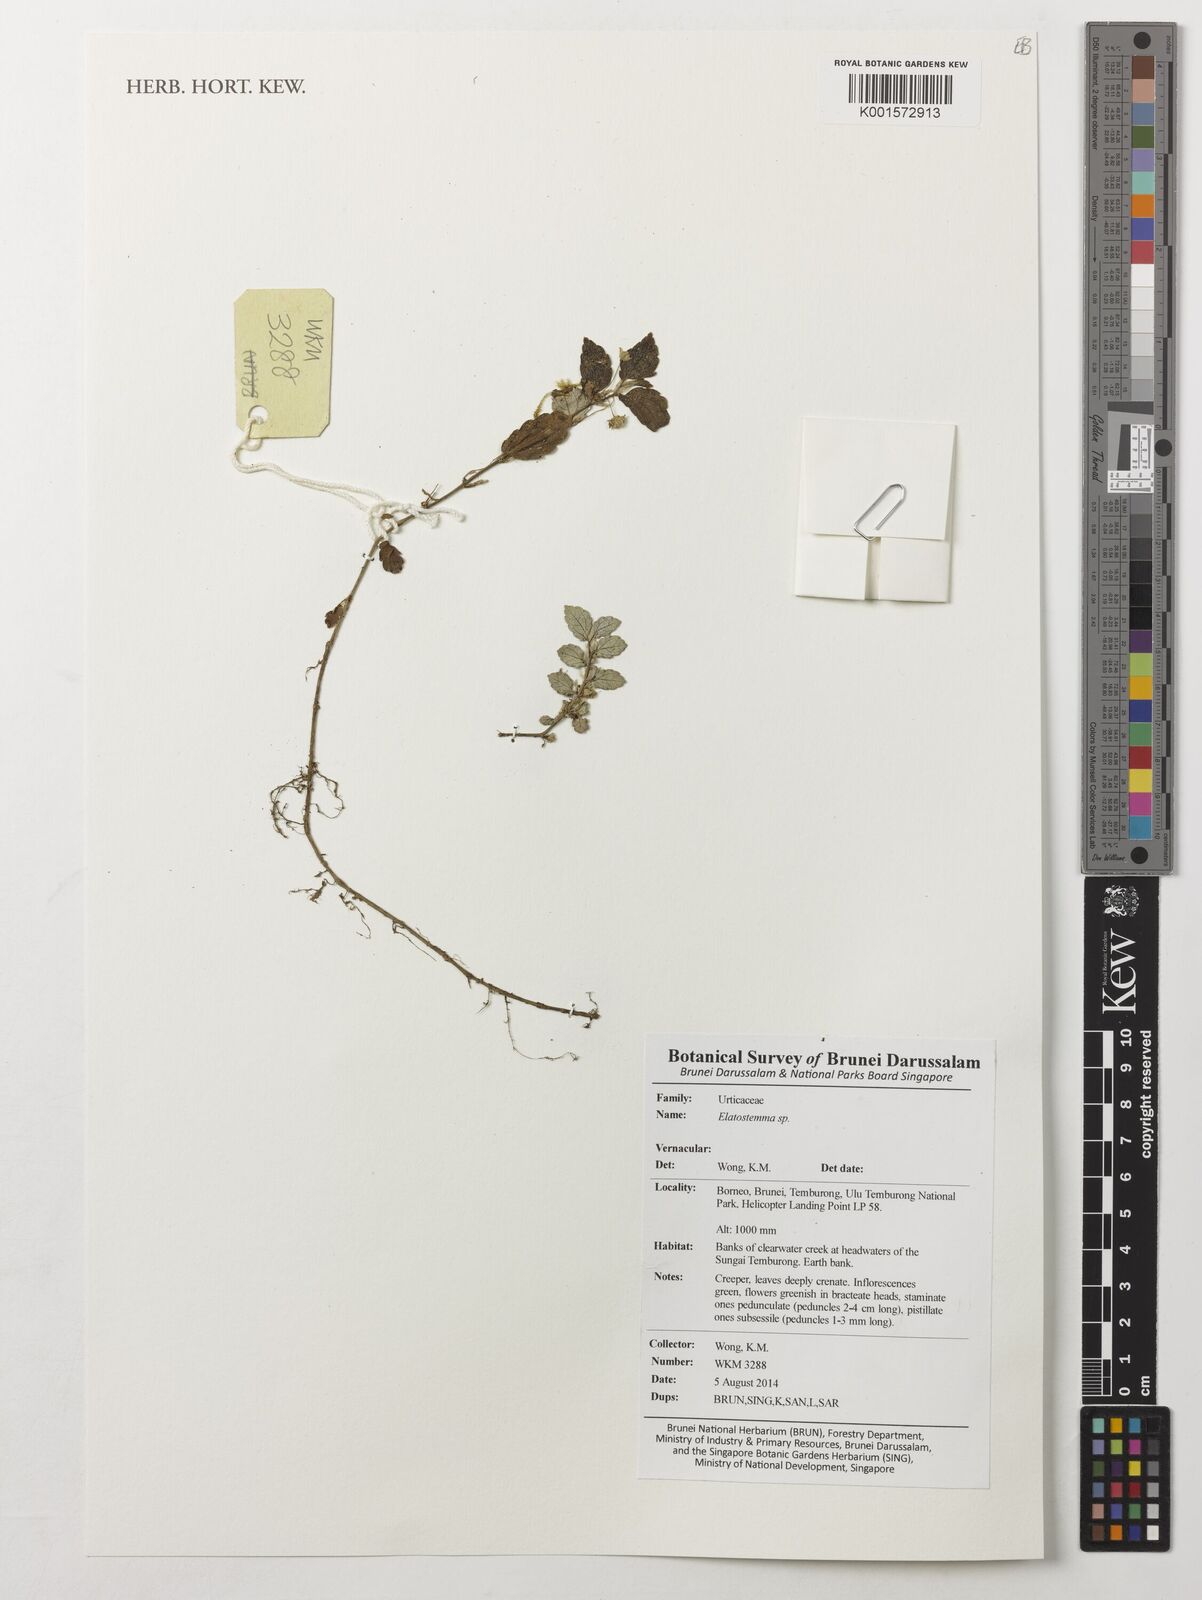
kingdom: Plantae
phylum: Tracheophyta
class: Magnoliopsida
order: Rosales
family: Urticaceae
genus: Elatostema
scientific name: Elatostema
